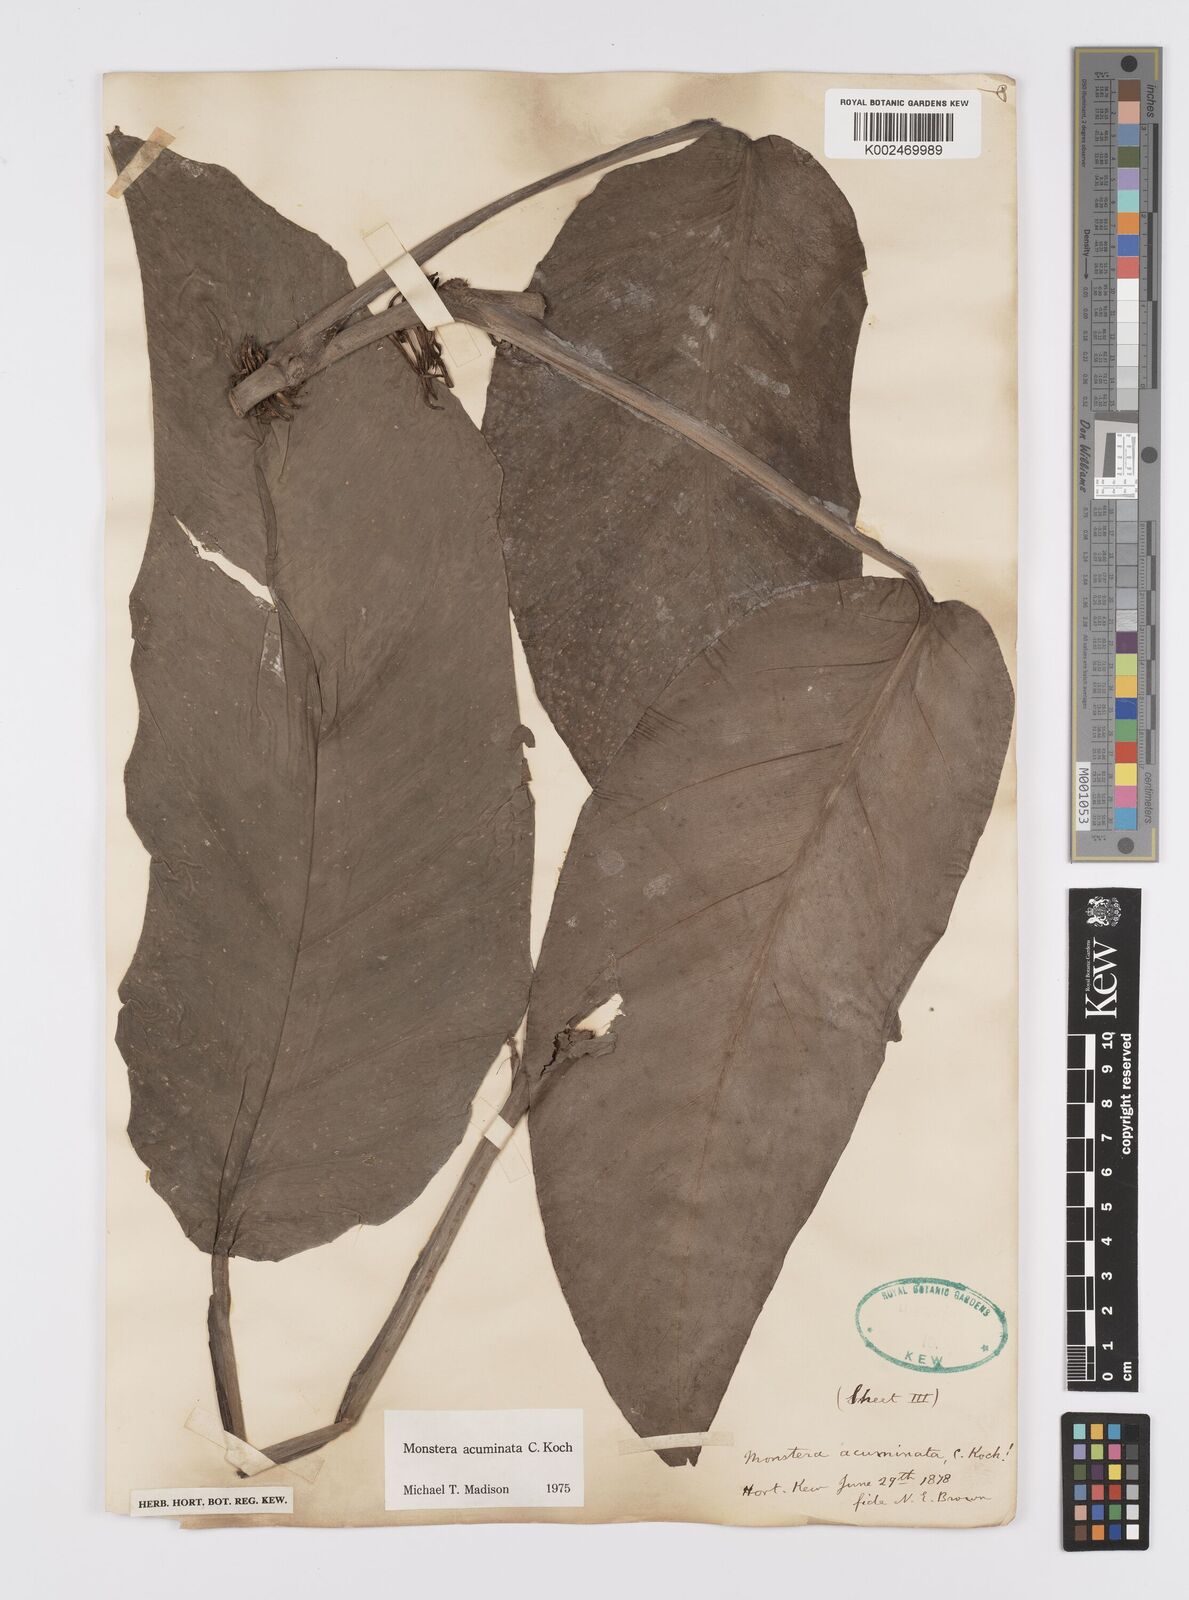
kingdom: Plantae
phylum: Tracheophyta
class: Liliopsida
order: Alismatales
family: Araceae
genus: Monstera
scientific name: Monstera acuminata
